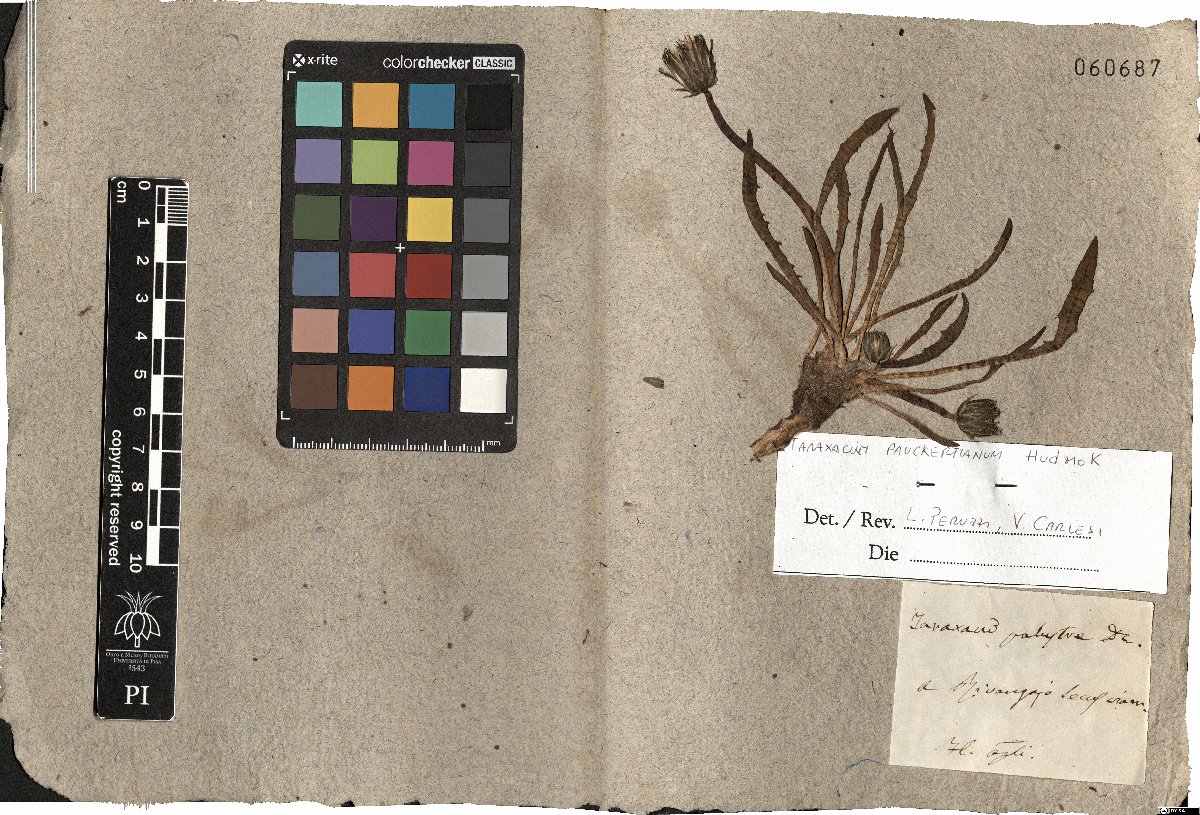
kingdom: Plantae
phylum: Tracheophyta
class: Magnoliopsida
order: Asterales
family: Asteraceae
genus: Taraxacum
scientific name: Taraxacum pauckertianum
